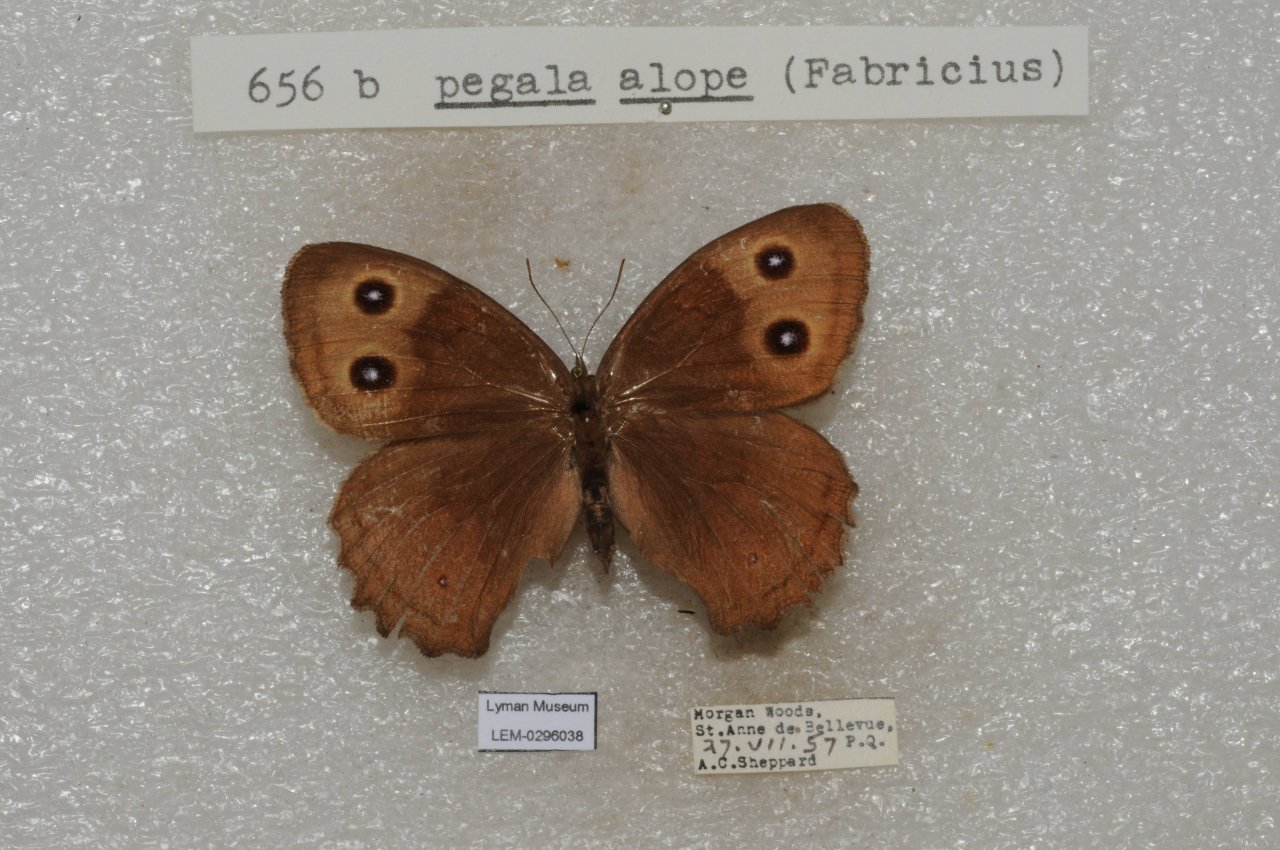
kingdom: Animalia
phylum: Arthropoda
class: Insecta
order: Lepidoptera
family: Nymphalidae
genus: Cercyonis
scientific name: Cercyonis pegala
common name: Common Wood-Nymph
